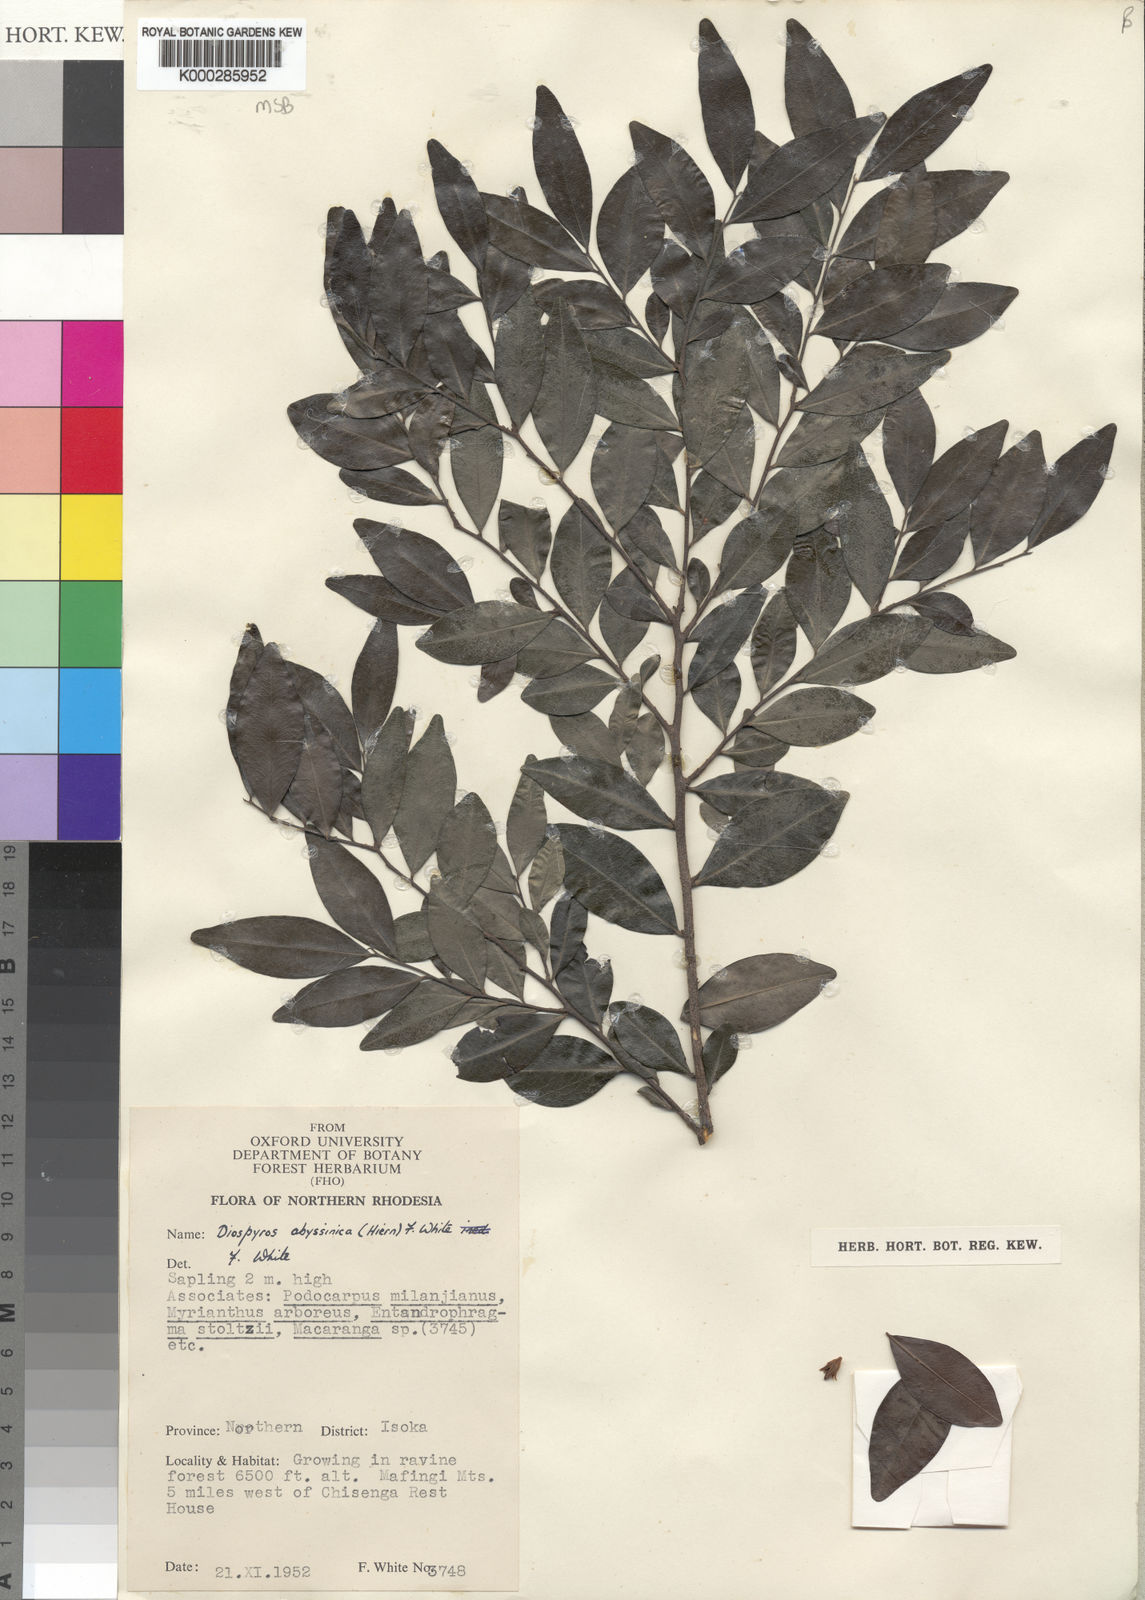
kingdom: Plantae
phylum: Tracheophyta
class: Magnoliopsida
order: Ericales
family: Ebenaceae
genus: Diospyros
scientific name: Diospyros abyssinica
